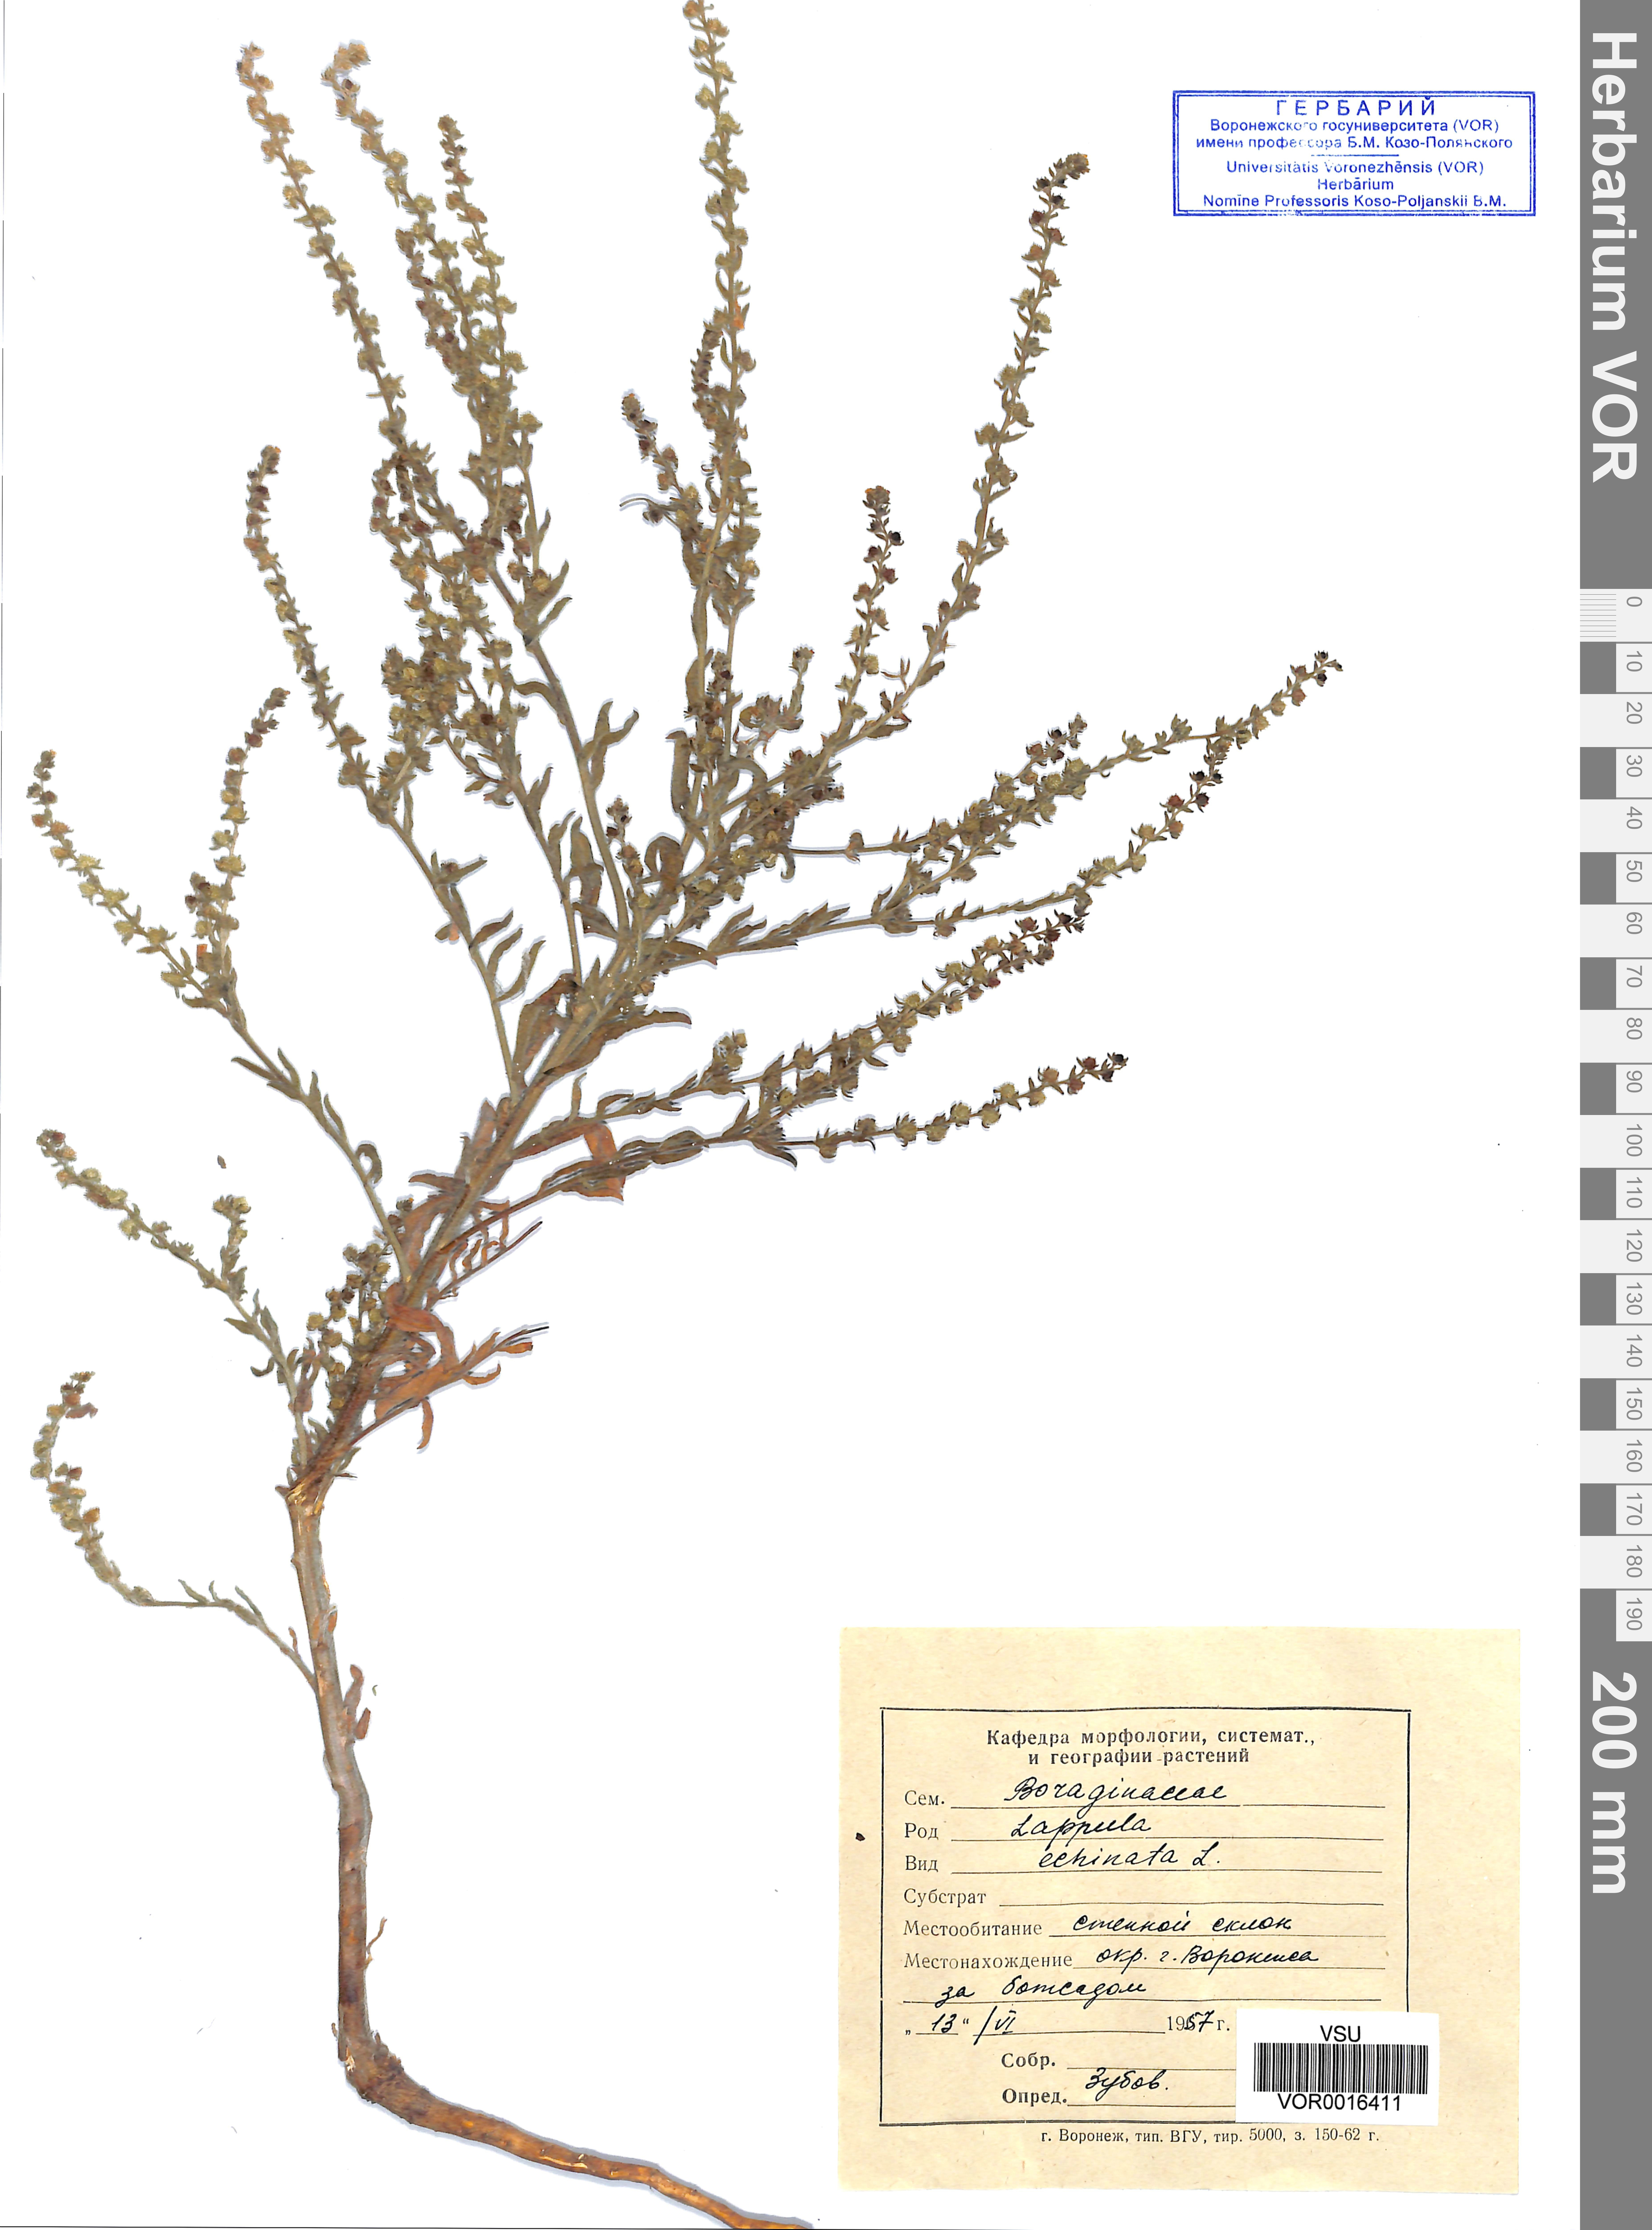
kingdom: Plantae
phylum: Tracheophyta
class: Magnoliopsida
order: Boraginales
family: Boraginaceae
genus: Lappula
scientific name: Lappula squarrosa
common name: European stickseed
